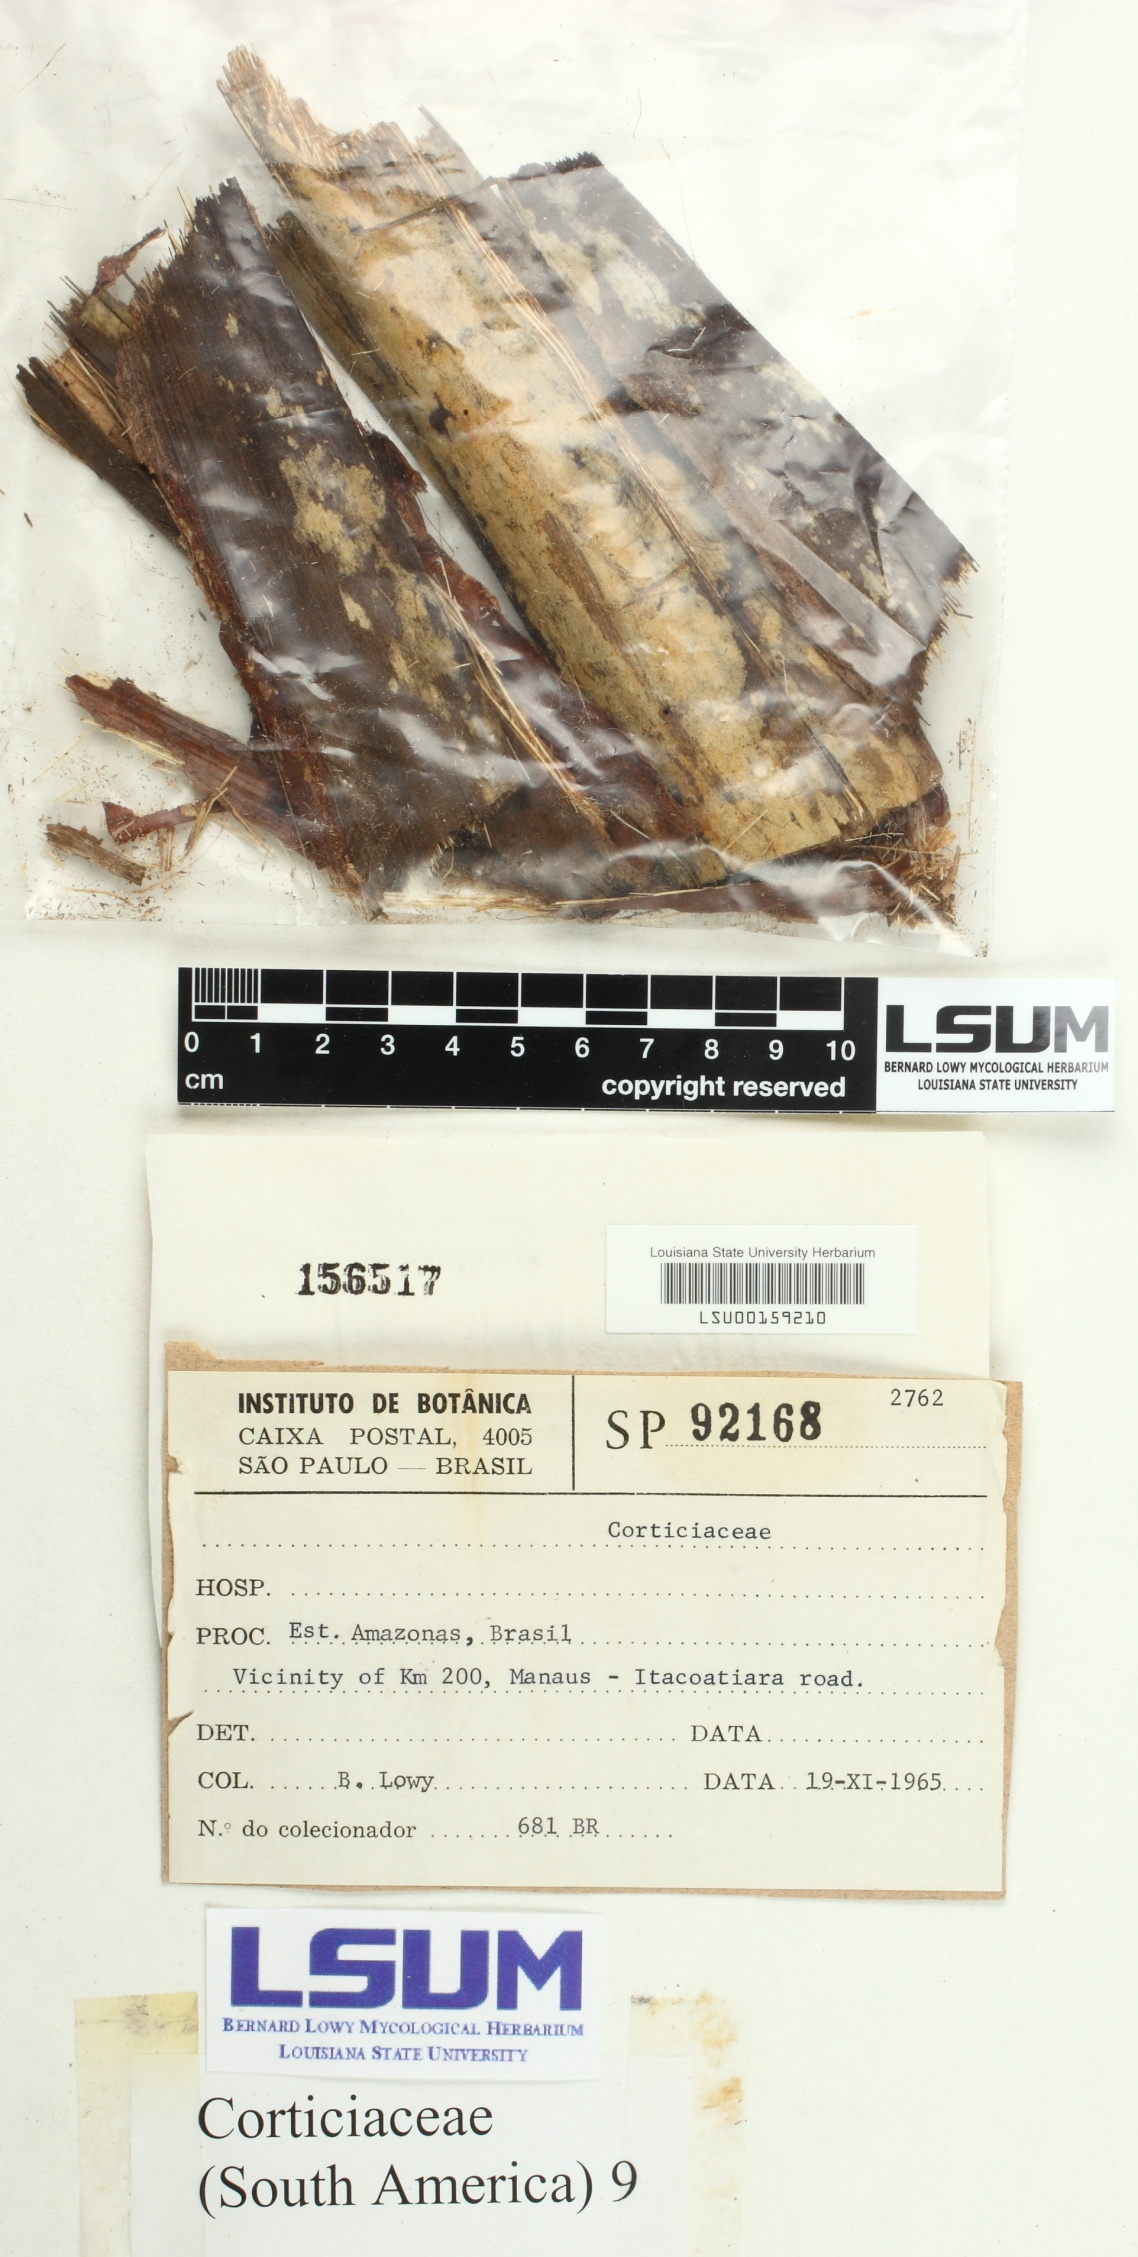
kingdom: Fungi
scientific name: Fungi
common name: Fungi
